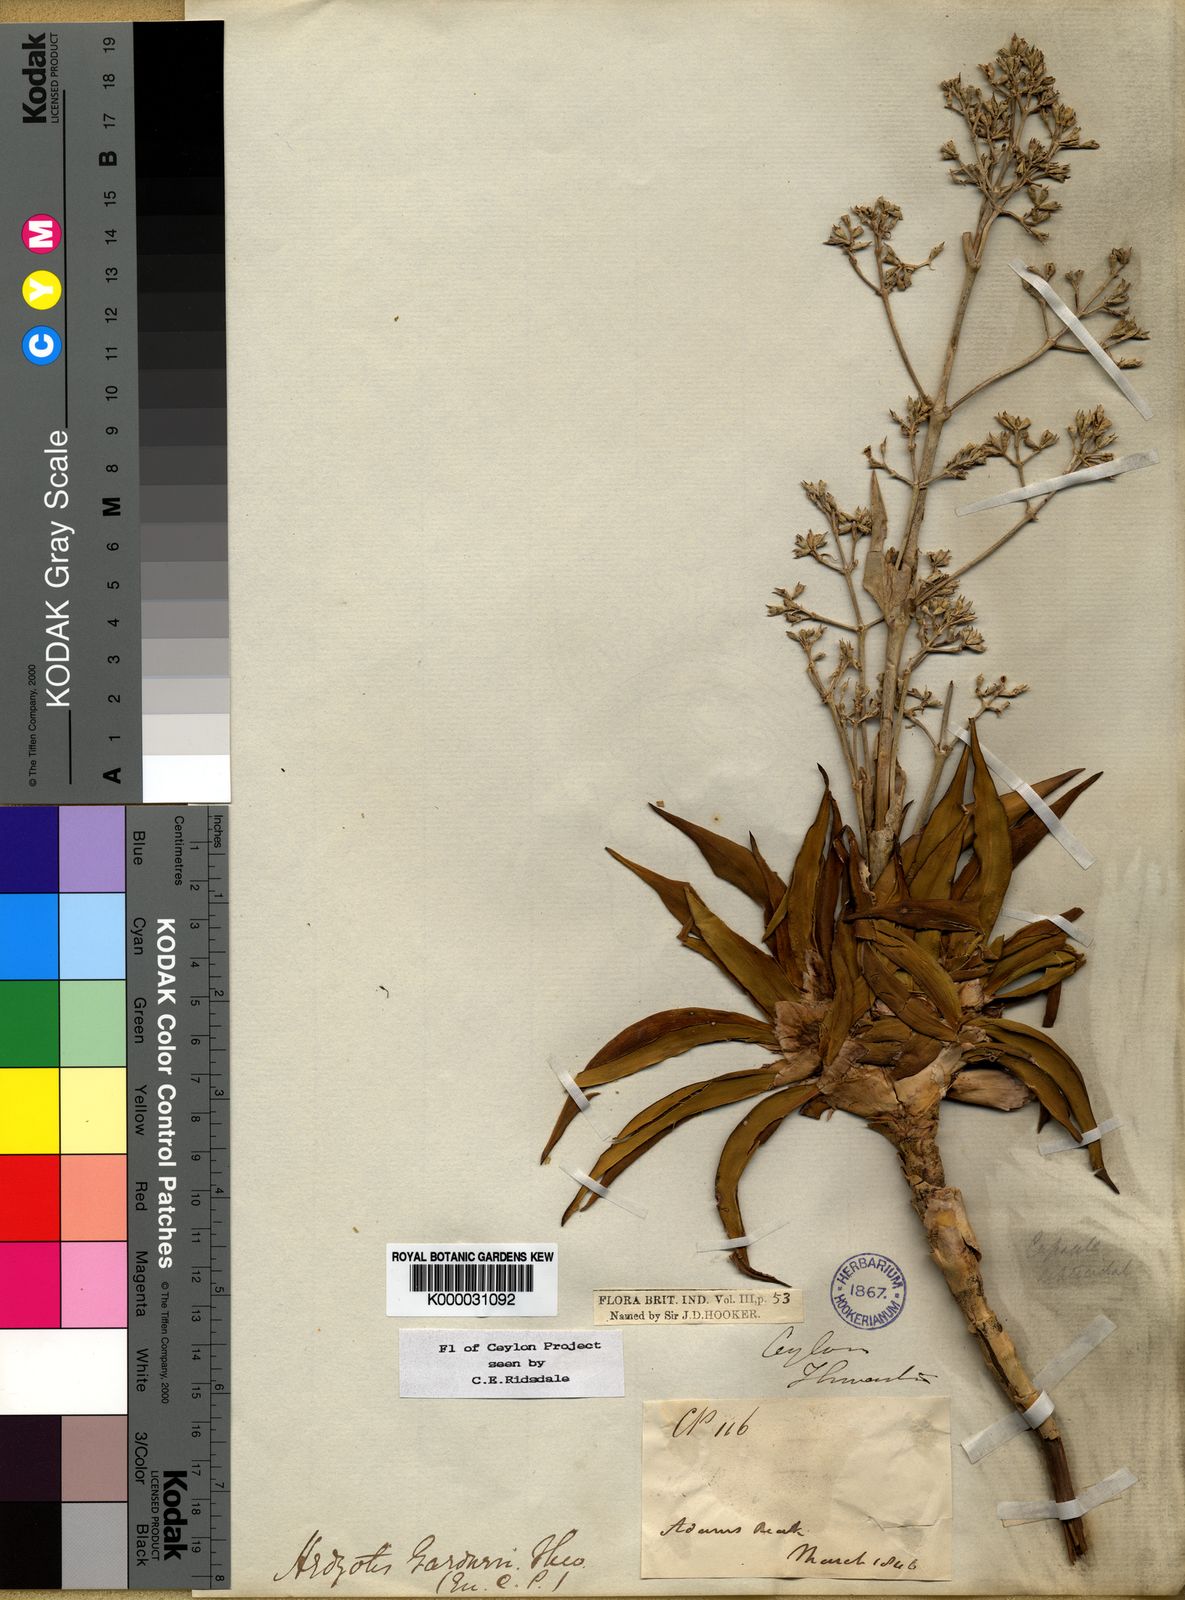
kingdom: Plantae
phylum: Tracheophyta
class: Magnoliopsida
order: Gentianales
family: Rubiaceae
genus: Hedyotis
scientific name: Hedyotis gardneri
